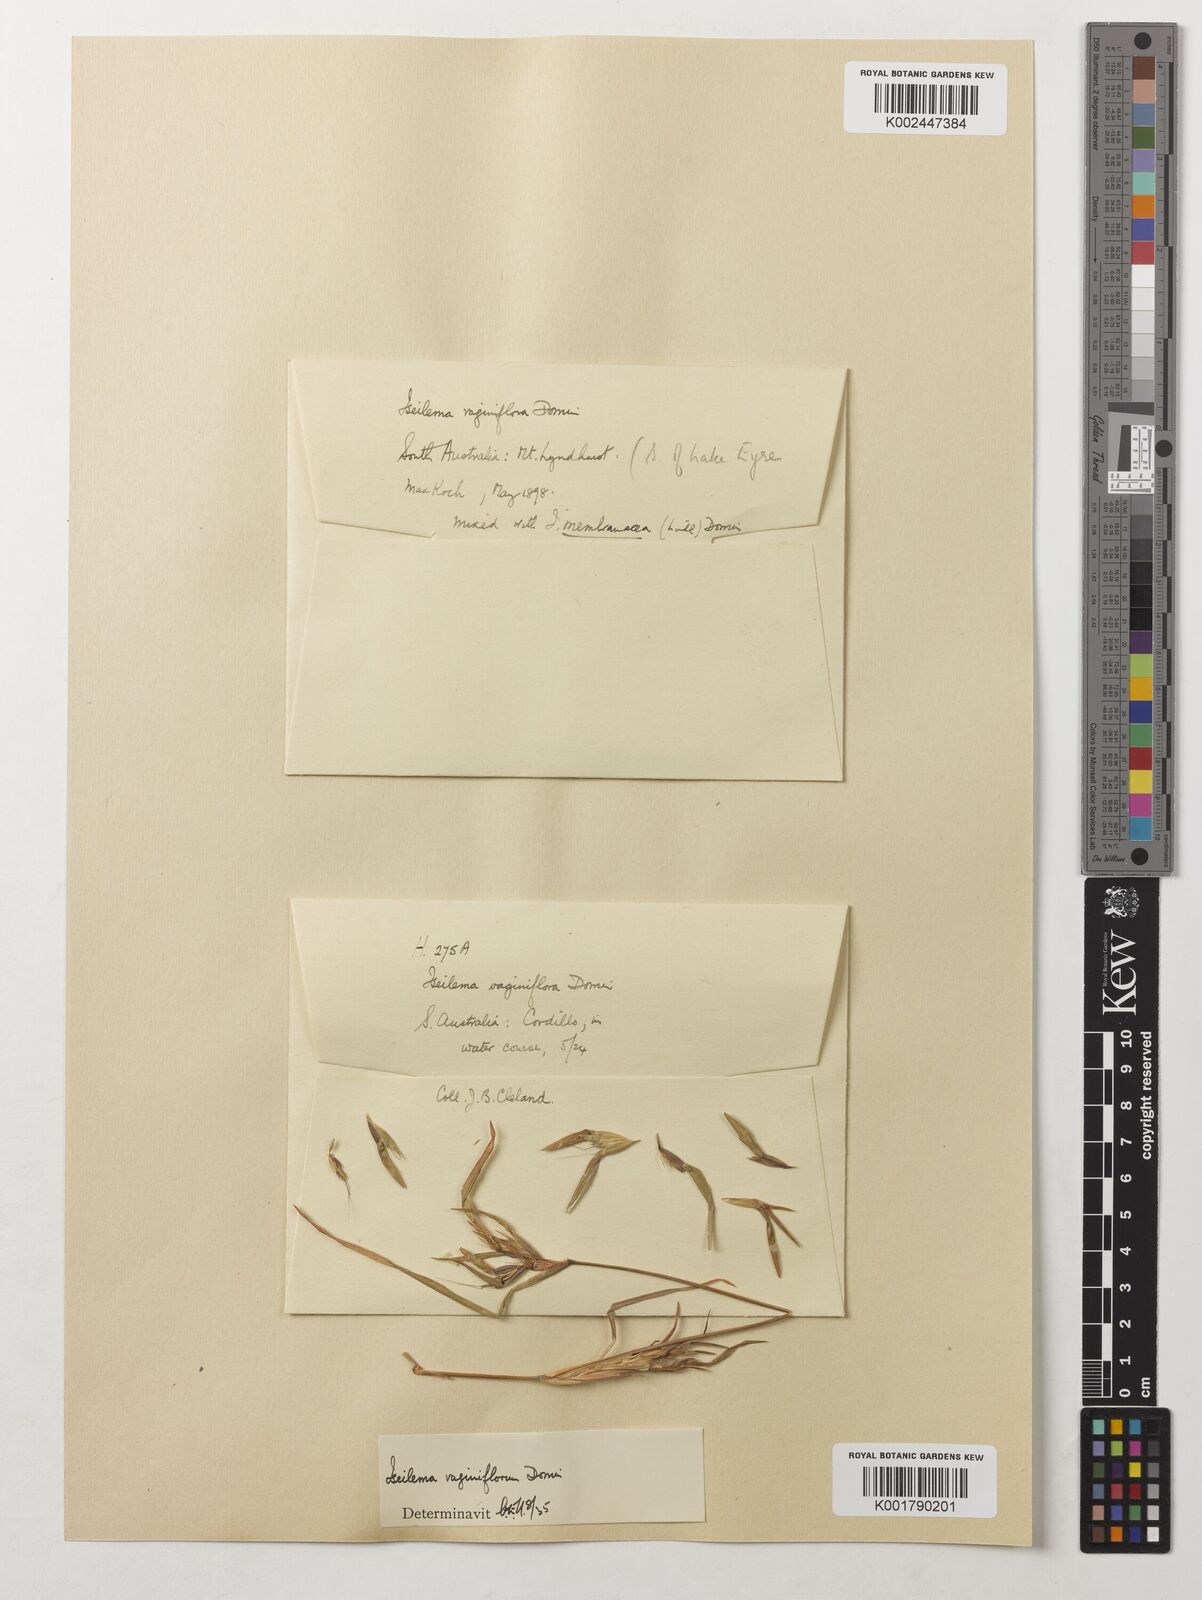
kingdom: Plantae
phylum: Tracheophyta
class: Liliopsida
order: Poales
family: Poaceae
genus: Iseilema
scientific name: Iseilema vaginiflorum
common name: Red flinders grass
